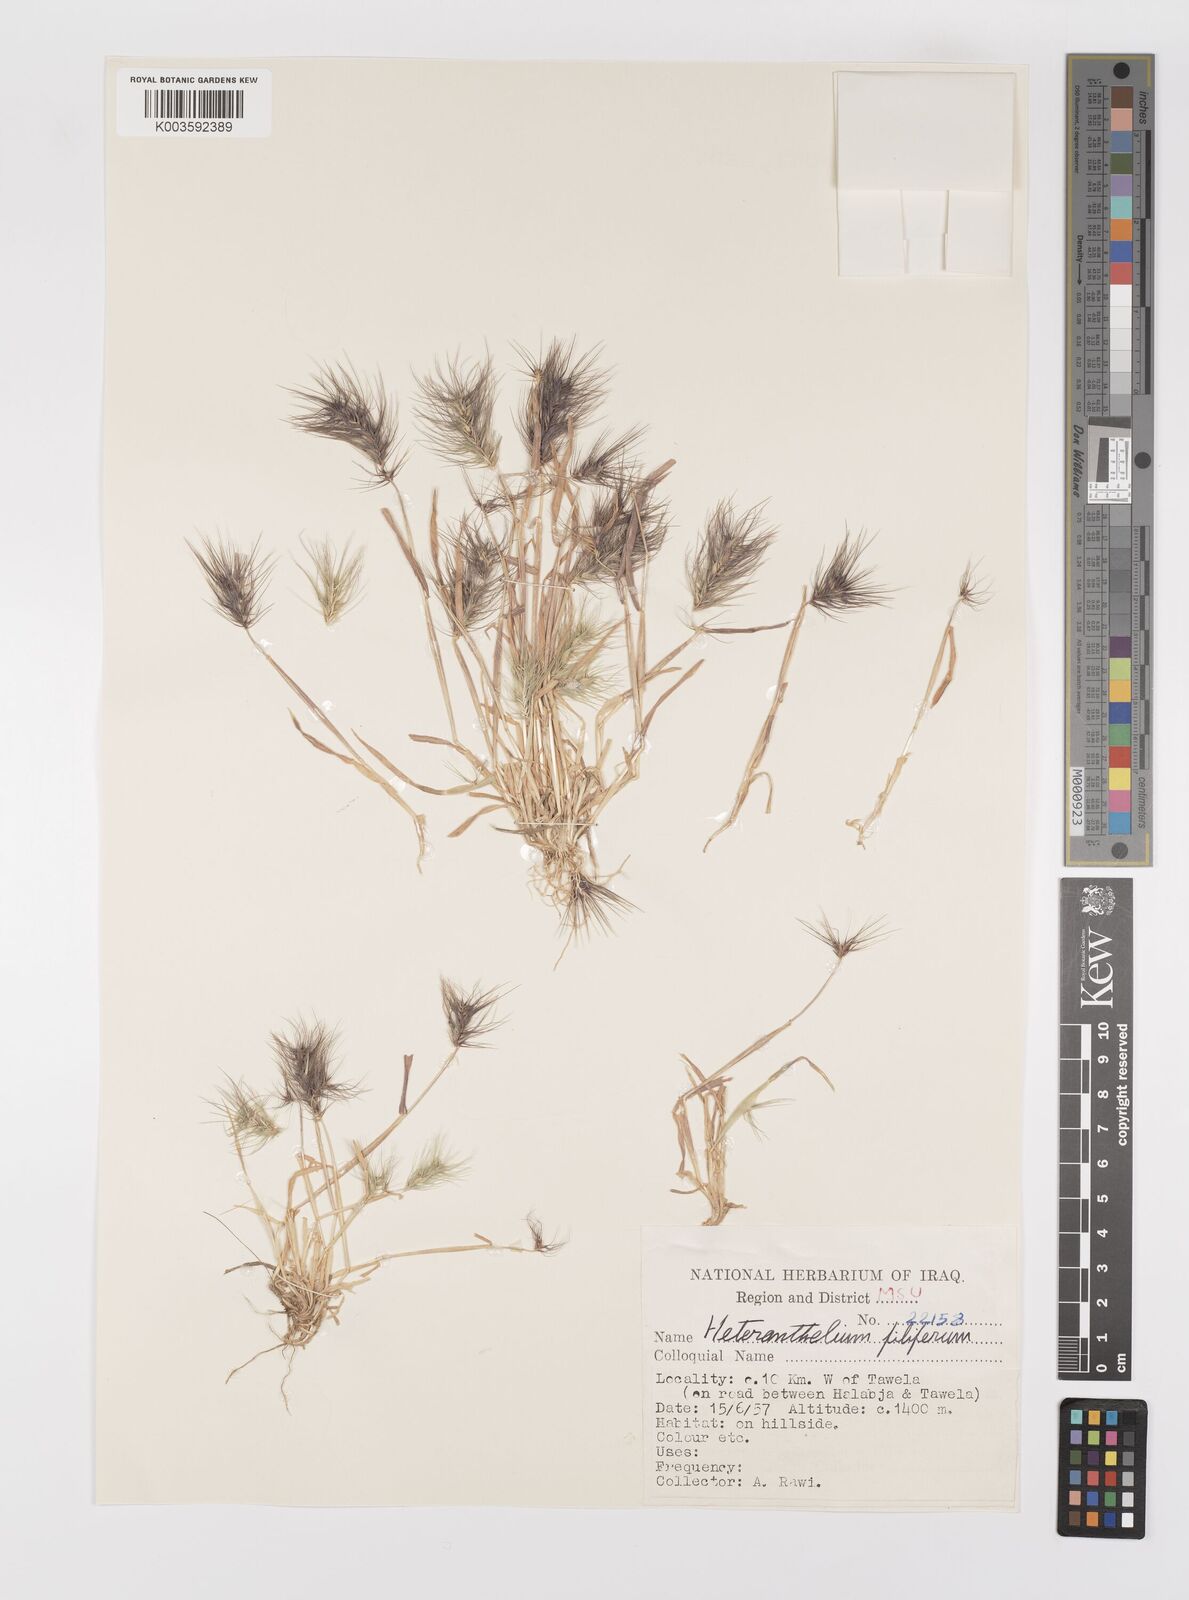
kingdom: Plantae
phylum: Tracheophyta
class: Liliopsida
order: Poales
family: Poaceae
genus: Heteranthelium
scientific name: Heteranthelium piliferum
